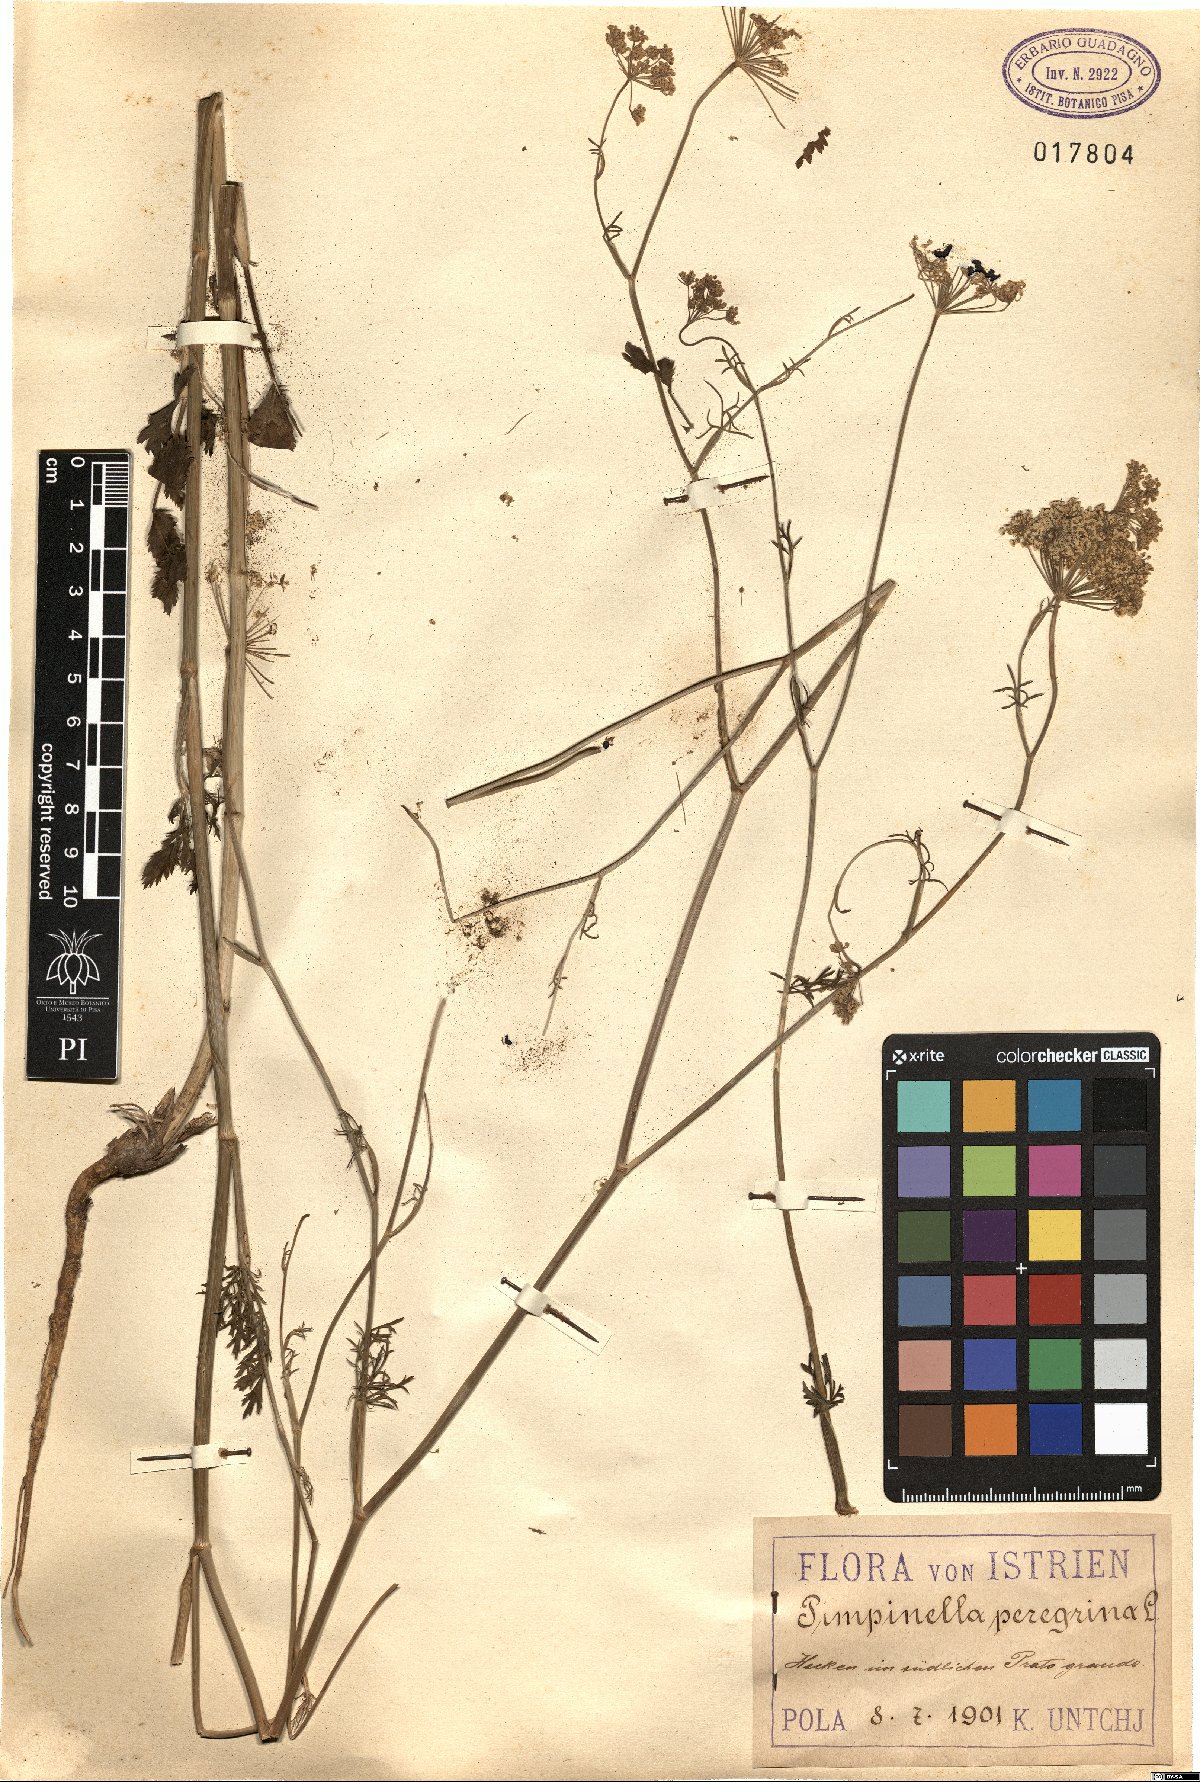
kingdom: Plantae
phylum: Tracheophyta
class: Magnoliopsida
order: Apiales
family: Apiaceae
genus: Pimpinella
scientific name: Pimpinella peregrina
